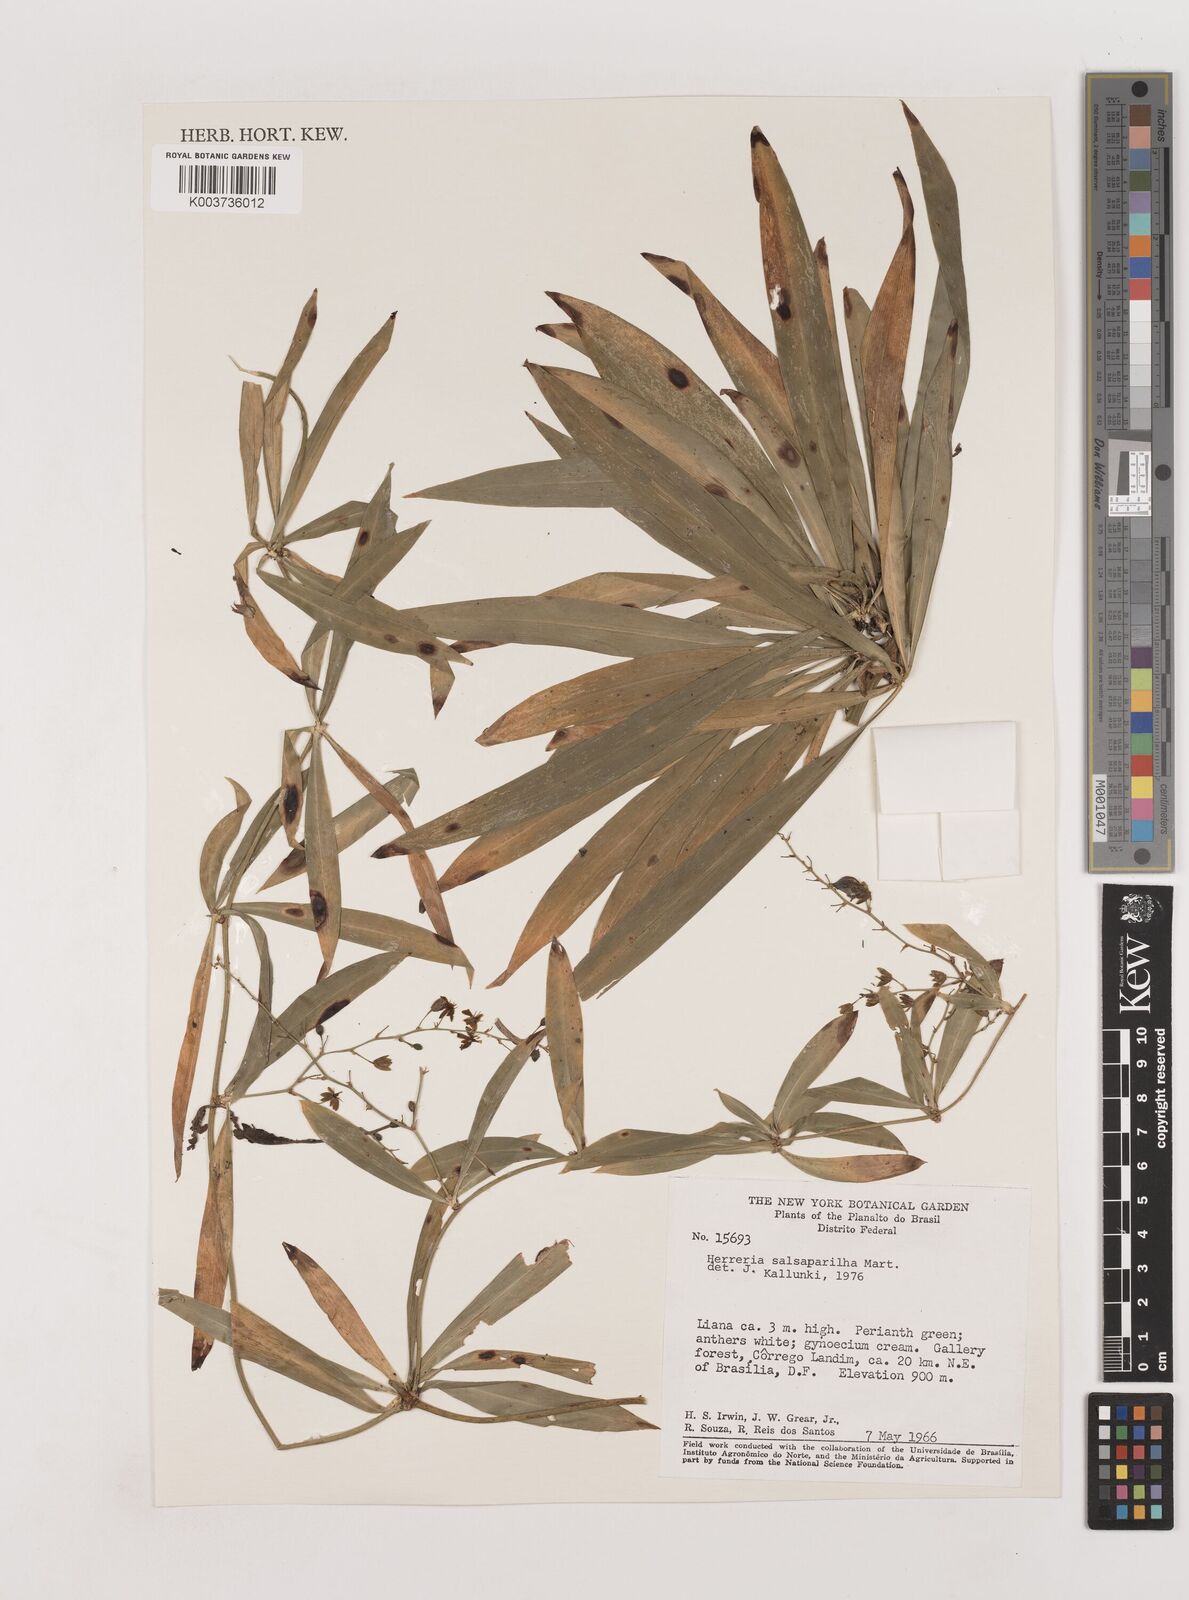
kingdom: Plantae
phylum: Tracheophyta
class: Liliopsida
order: Asparagales
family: Asparagaceae
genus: Herreria
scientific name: Herreria salsaparilha
